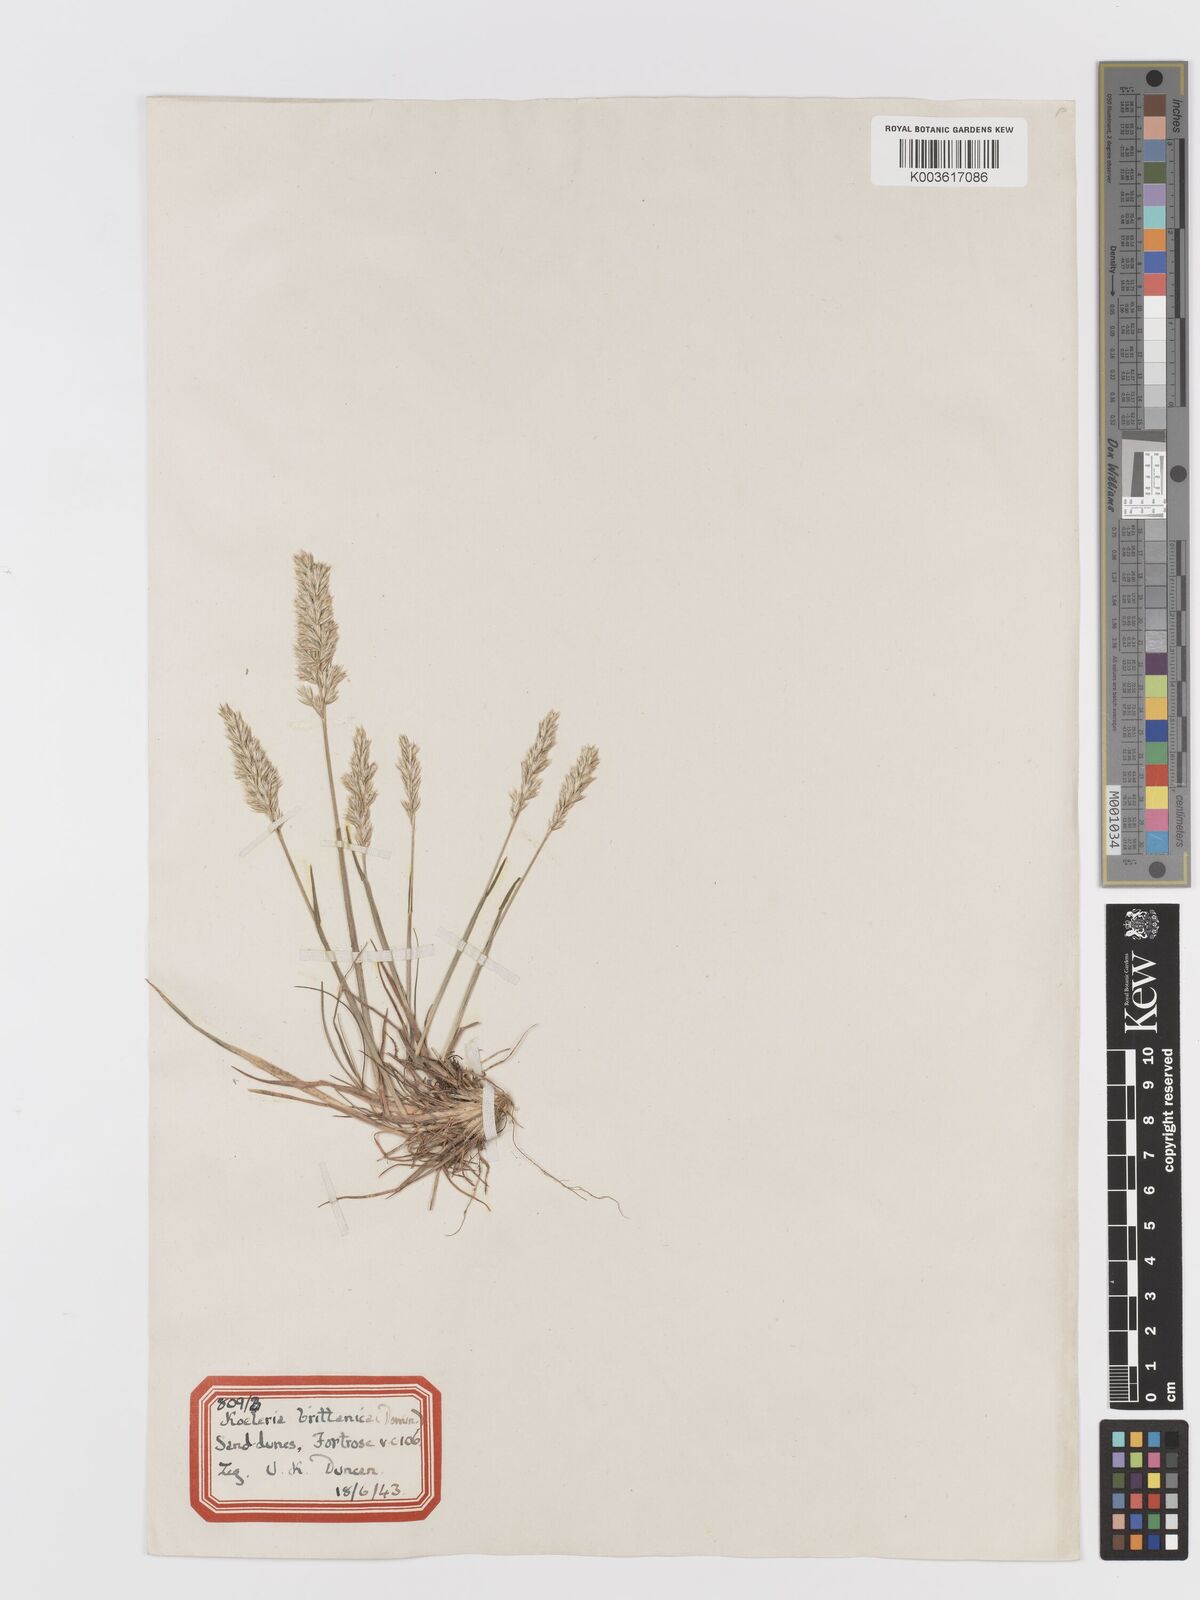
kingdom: Plantae
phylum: Tracheophyta
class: Liliopsida
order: Poales
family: Poaceae
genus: Koeleria
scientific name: Koeleria macrantha
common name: Crested hair-grass
